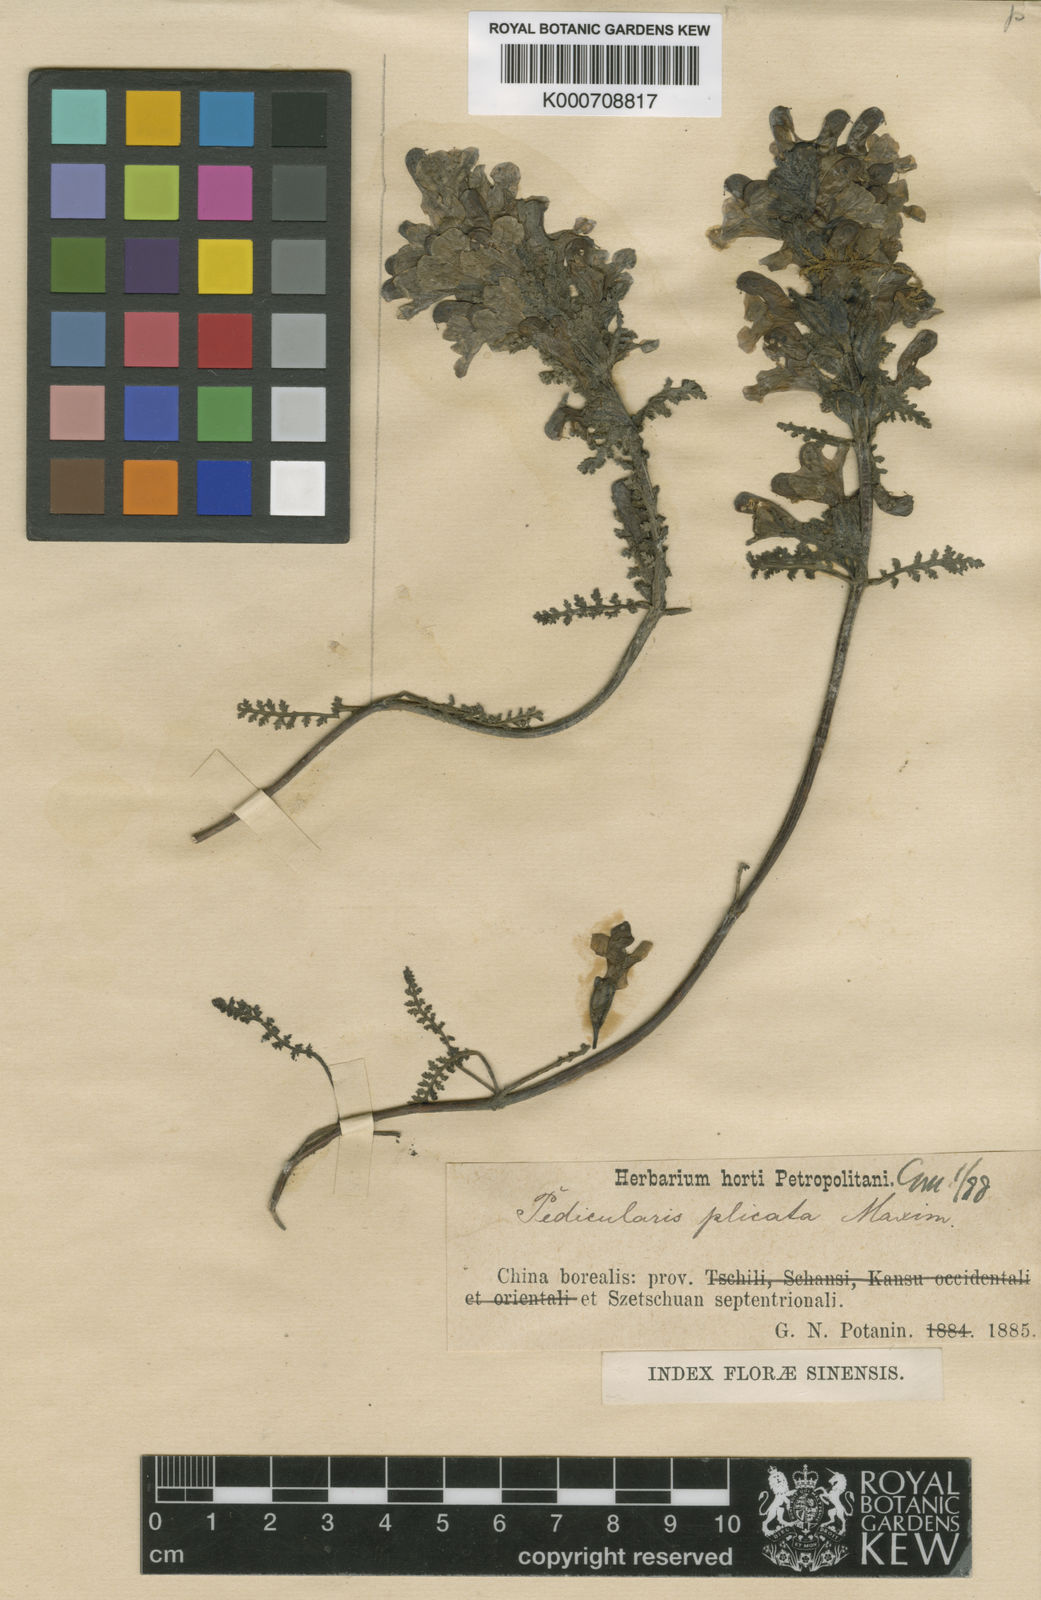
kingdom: Plantae
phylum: Tracheophyta
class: Magnoliopsida
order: Lamiales
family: Orobanchaceae
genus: Pedicularis
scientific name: Pedicularis plicata
